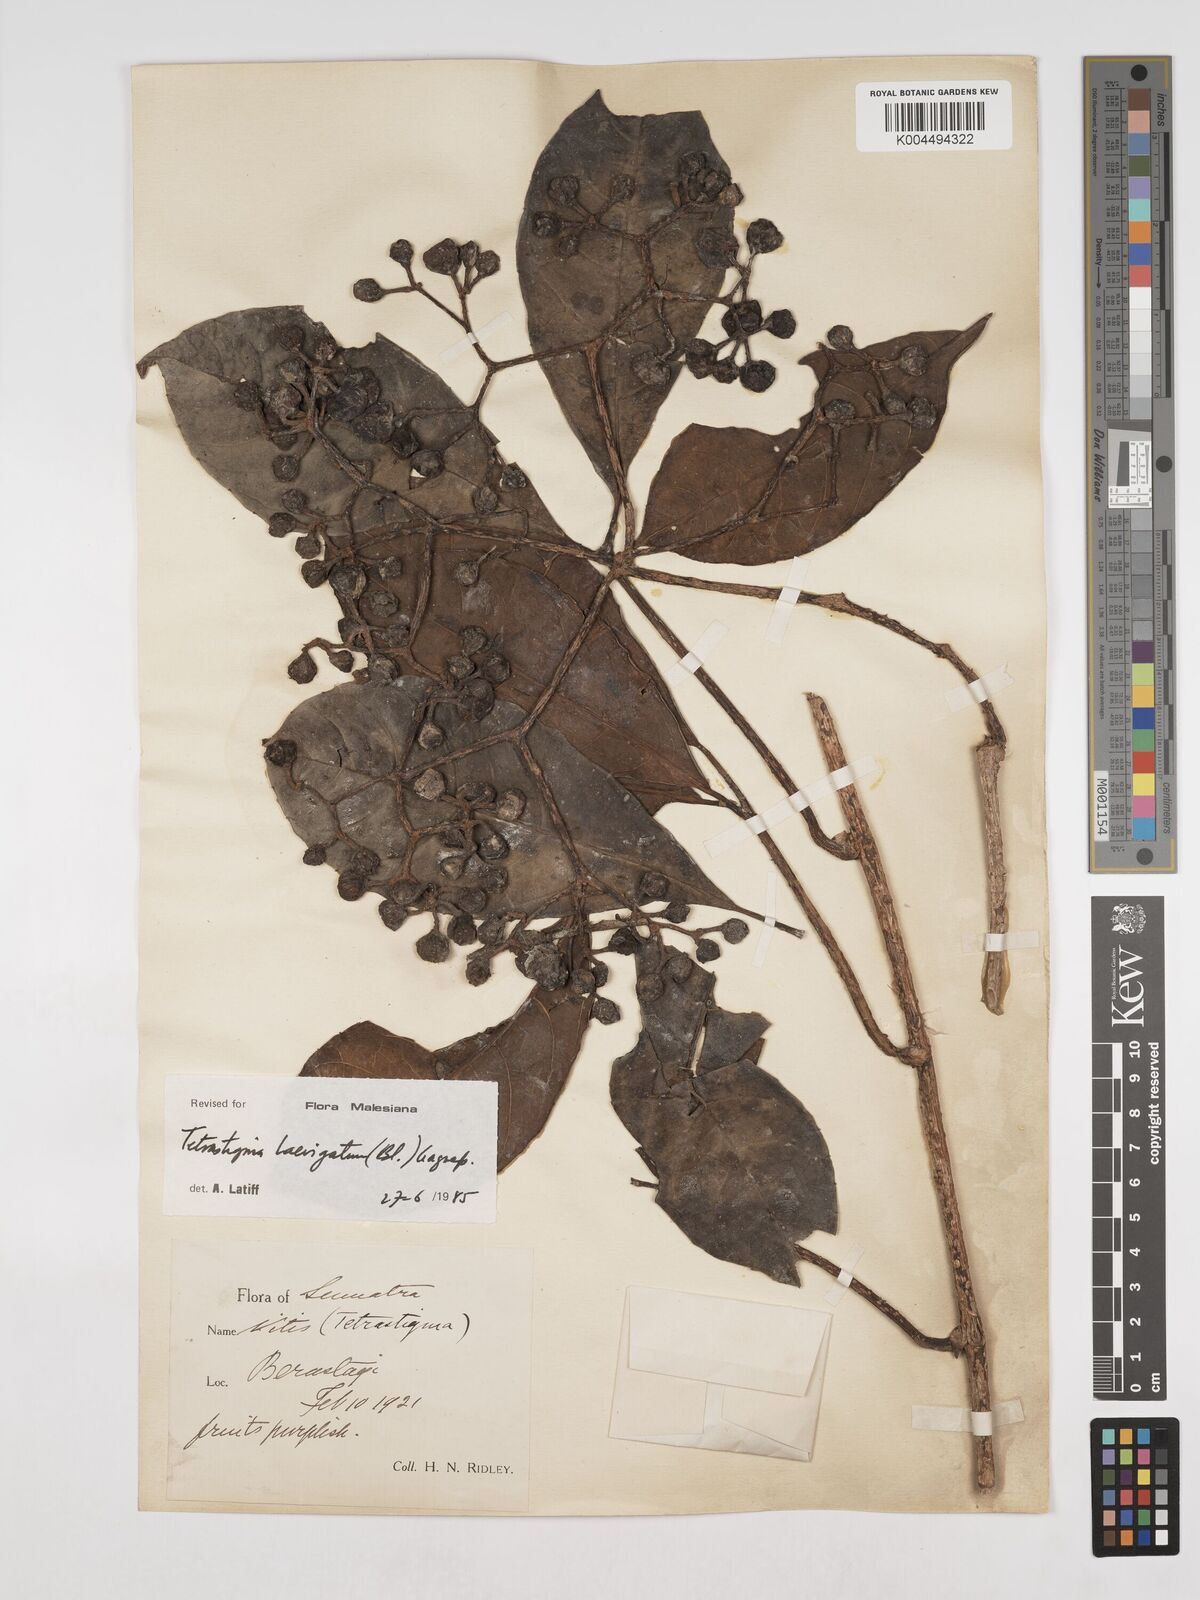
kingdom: Plantae
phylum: Tracheophyta
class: Magnoliopsida
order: Vitales
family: Vitaceae
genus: Tetrastigma
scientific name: Tetrastigma laevigatum
